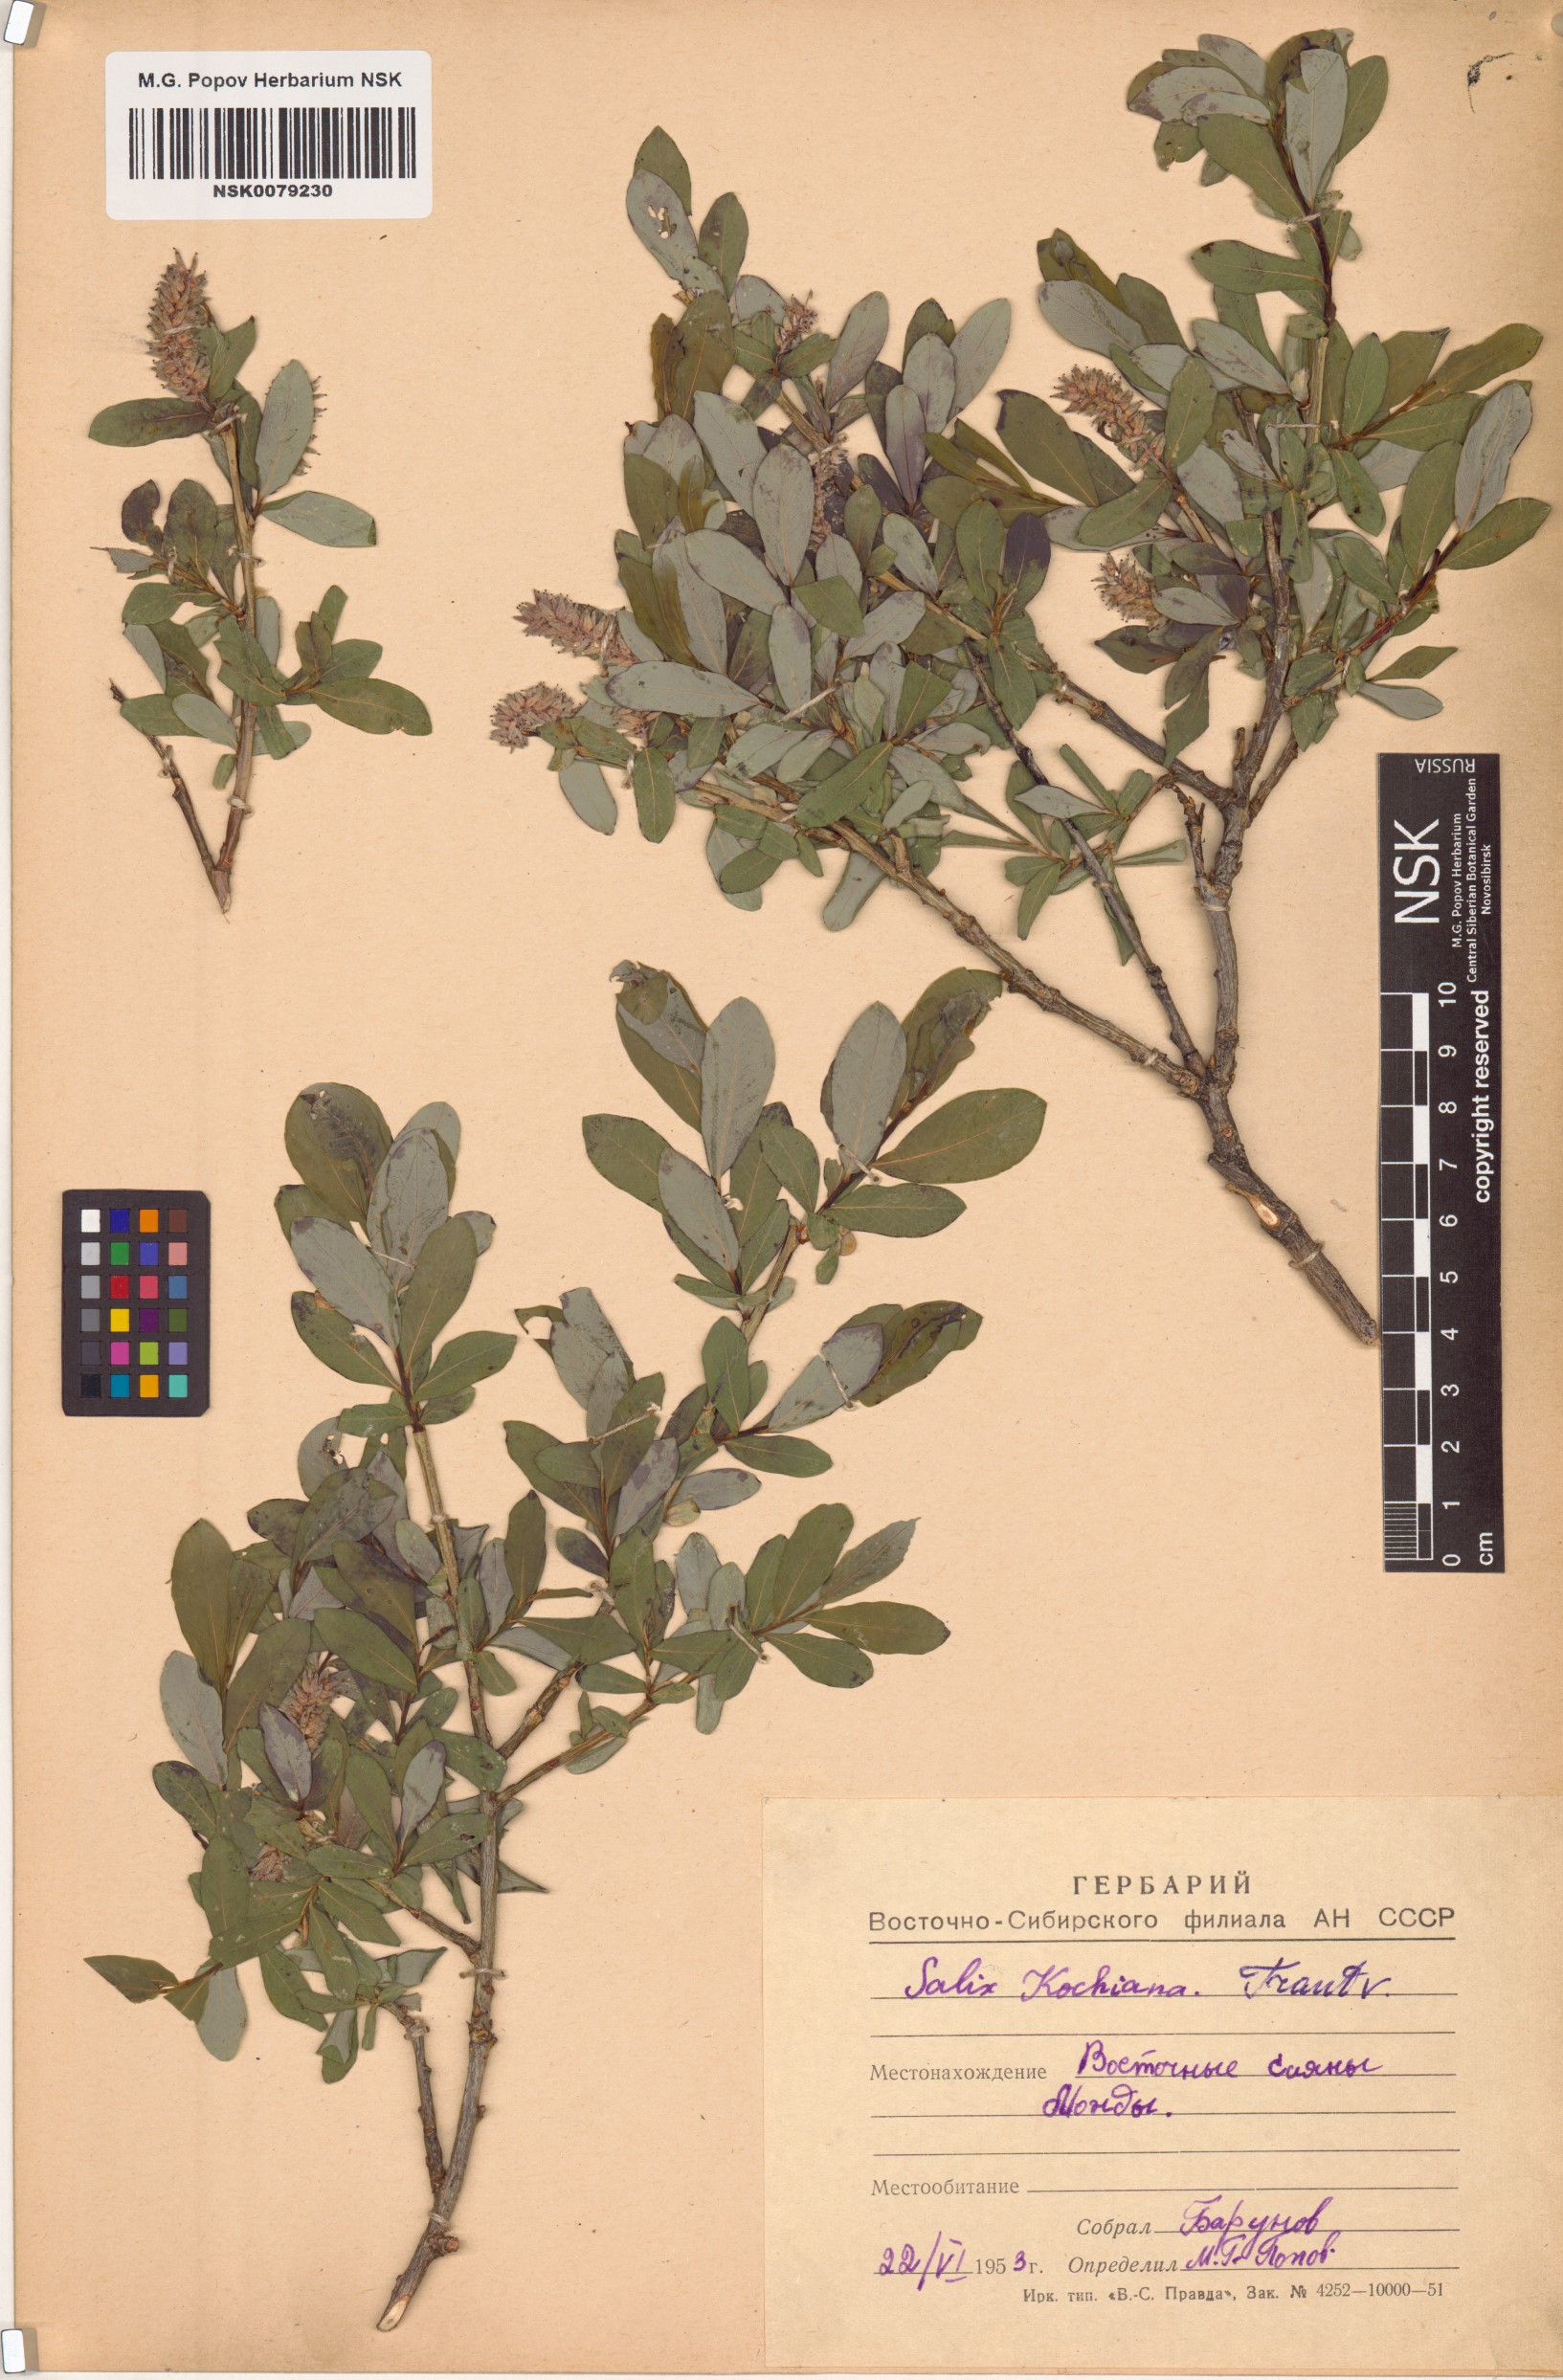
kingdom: Plantae
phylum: Tracheophyta
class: Magnoliopsida
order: Malpighiales
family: Salicaceae
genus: Salix
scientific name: Salix kochiana
